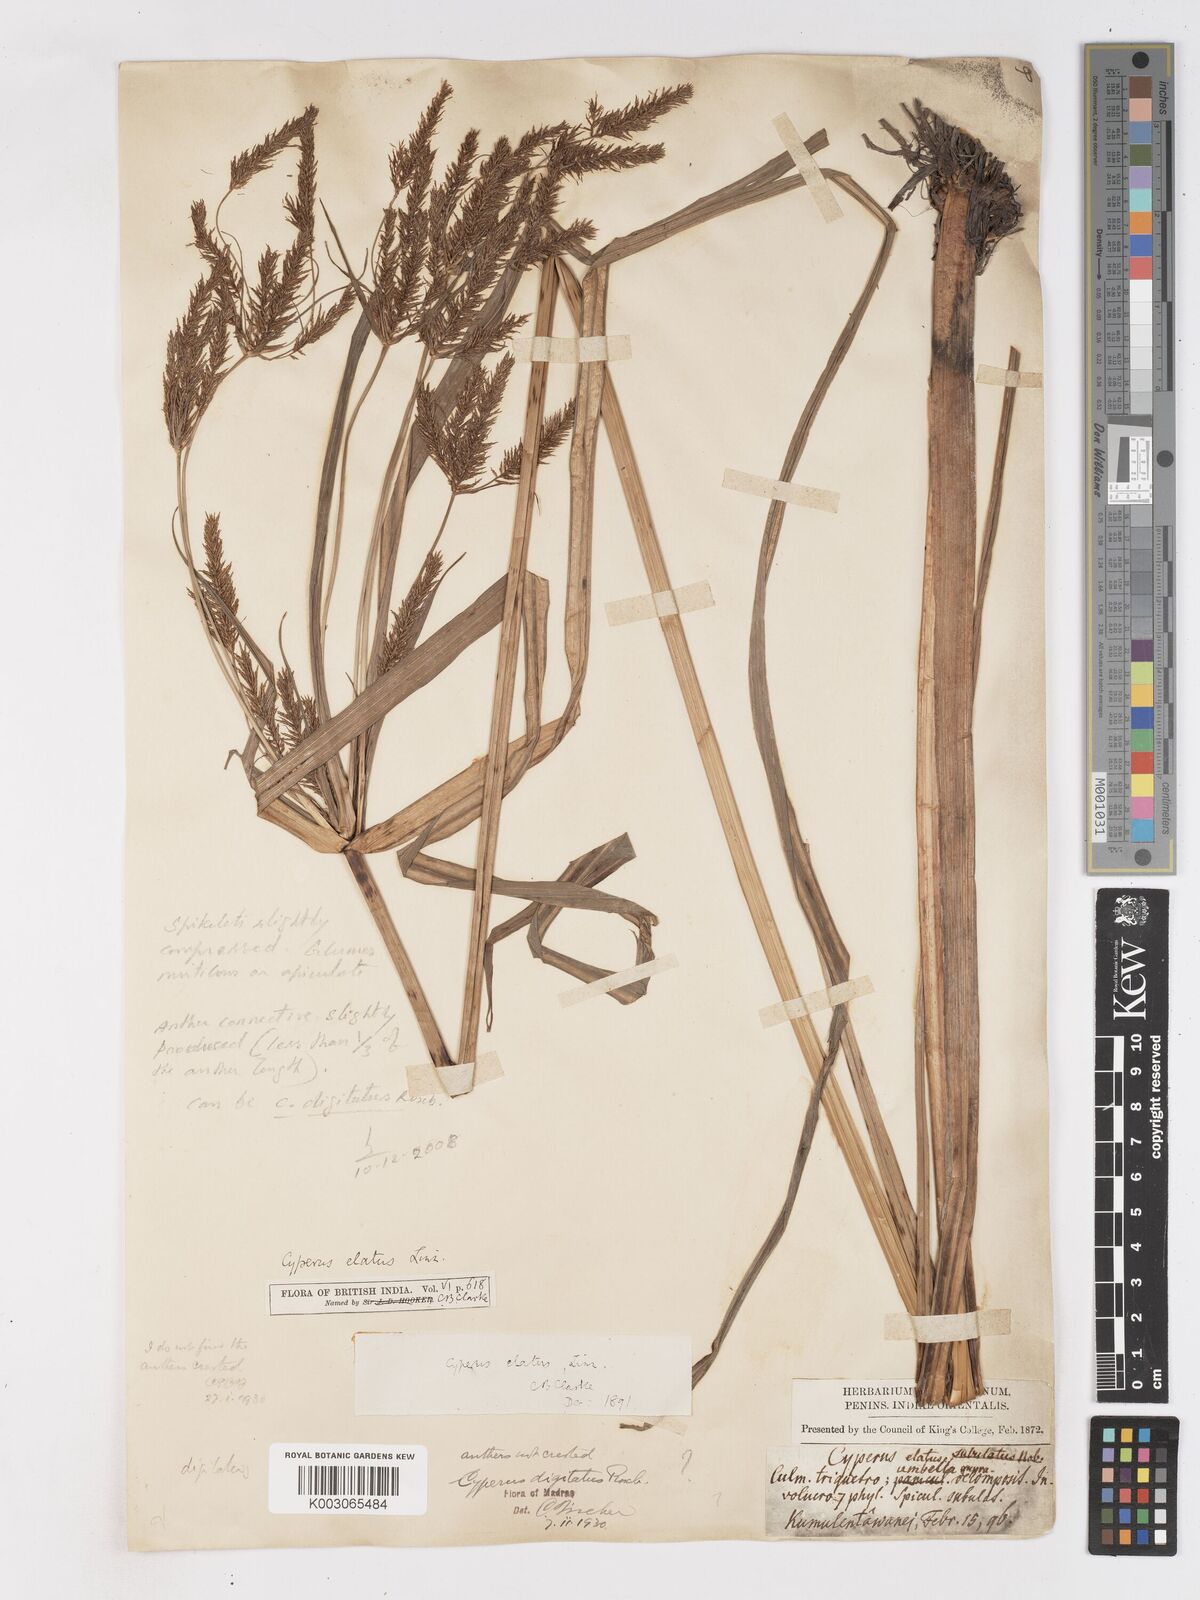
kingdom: Plantae
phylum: Tracheophyta
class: Liliopsida
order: Poales
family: Cyperaceae
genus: Cyperus
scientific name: Cyperus digitatus
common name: Finger flatsedge
